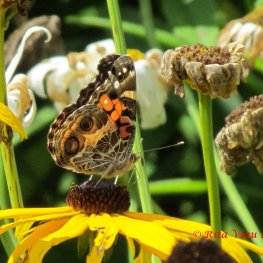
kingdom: Animalia
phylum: Arthropoda
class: Insecta
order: Lepidoptera
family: Nymphalidae
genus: Vanessa
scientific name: Vanessa virginiensis
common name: American Lady
